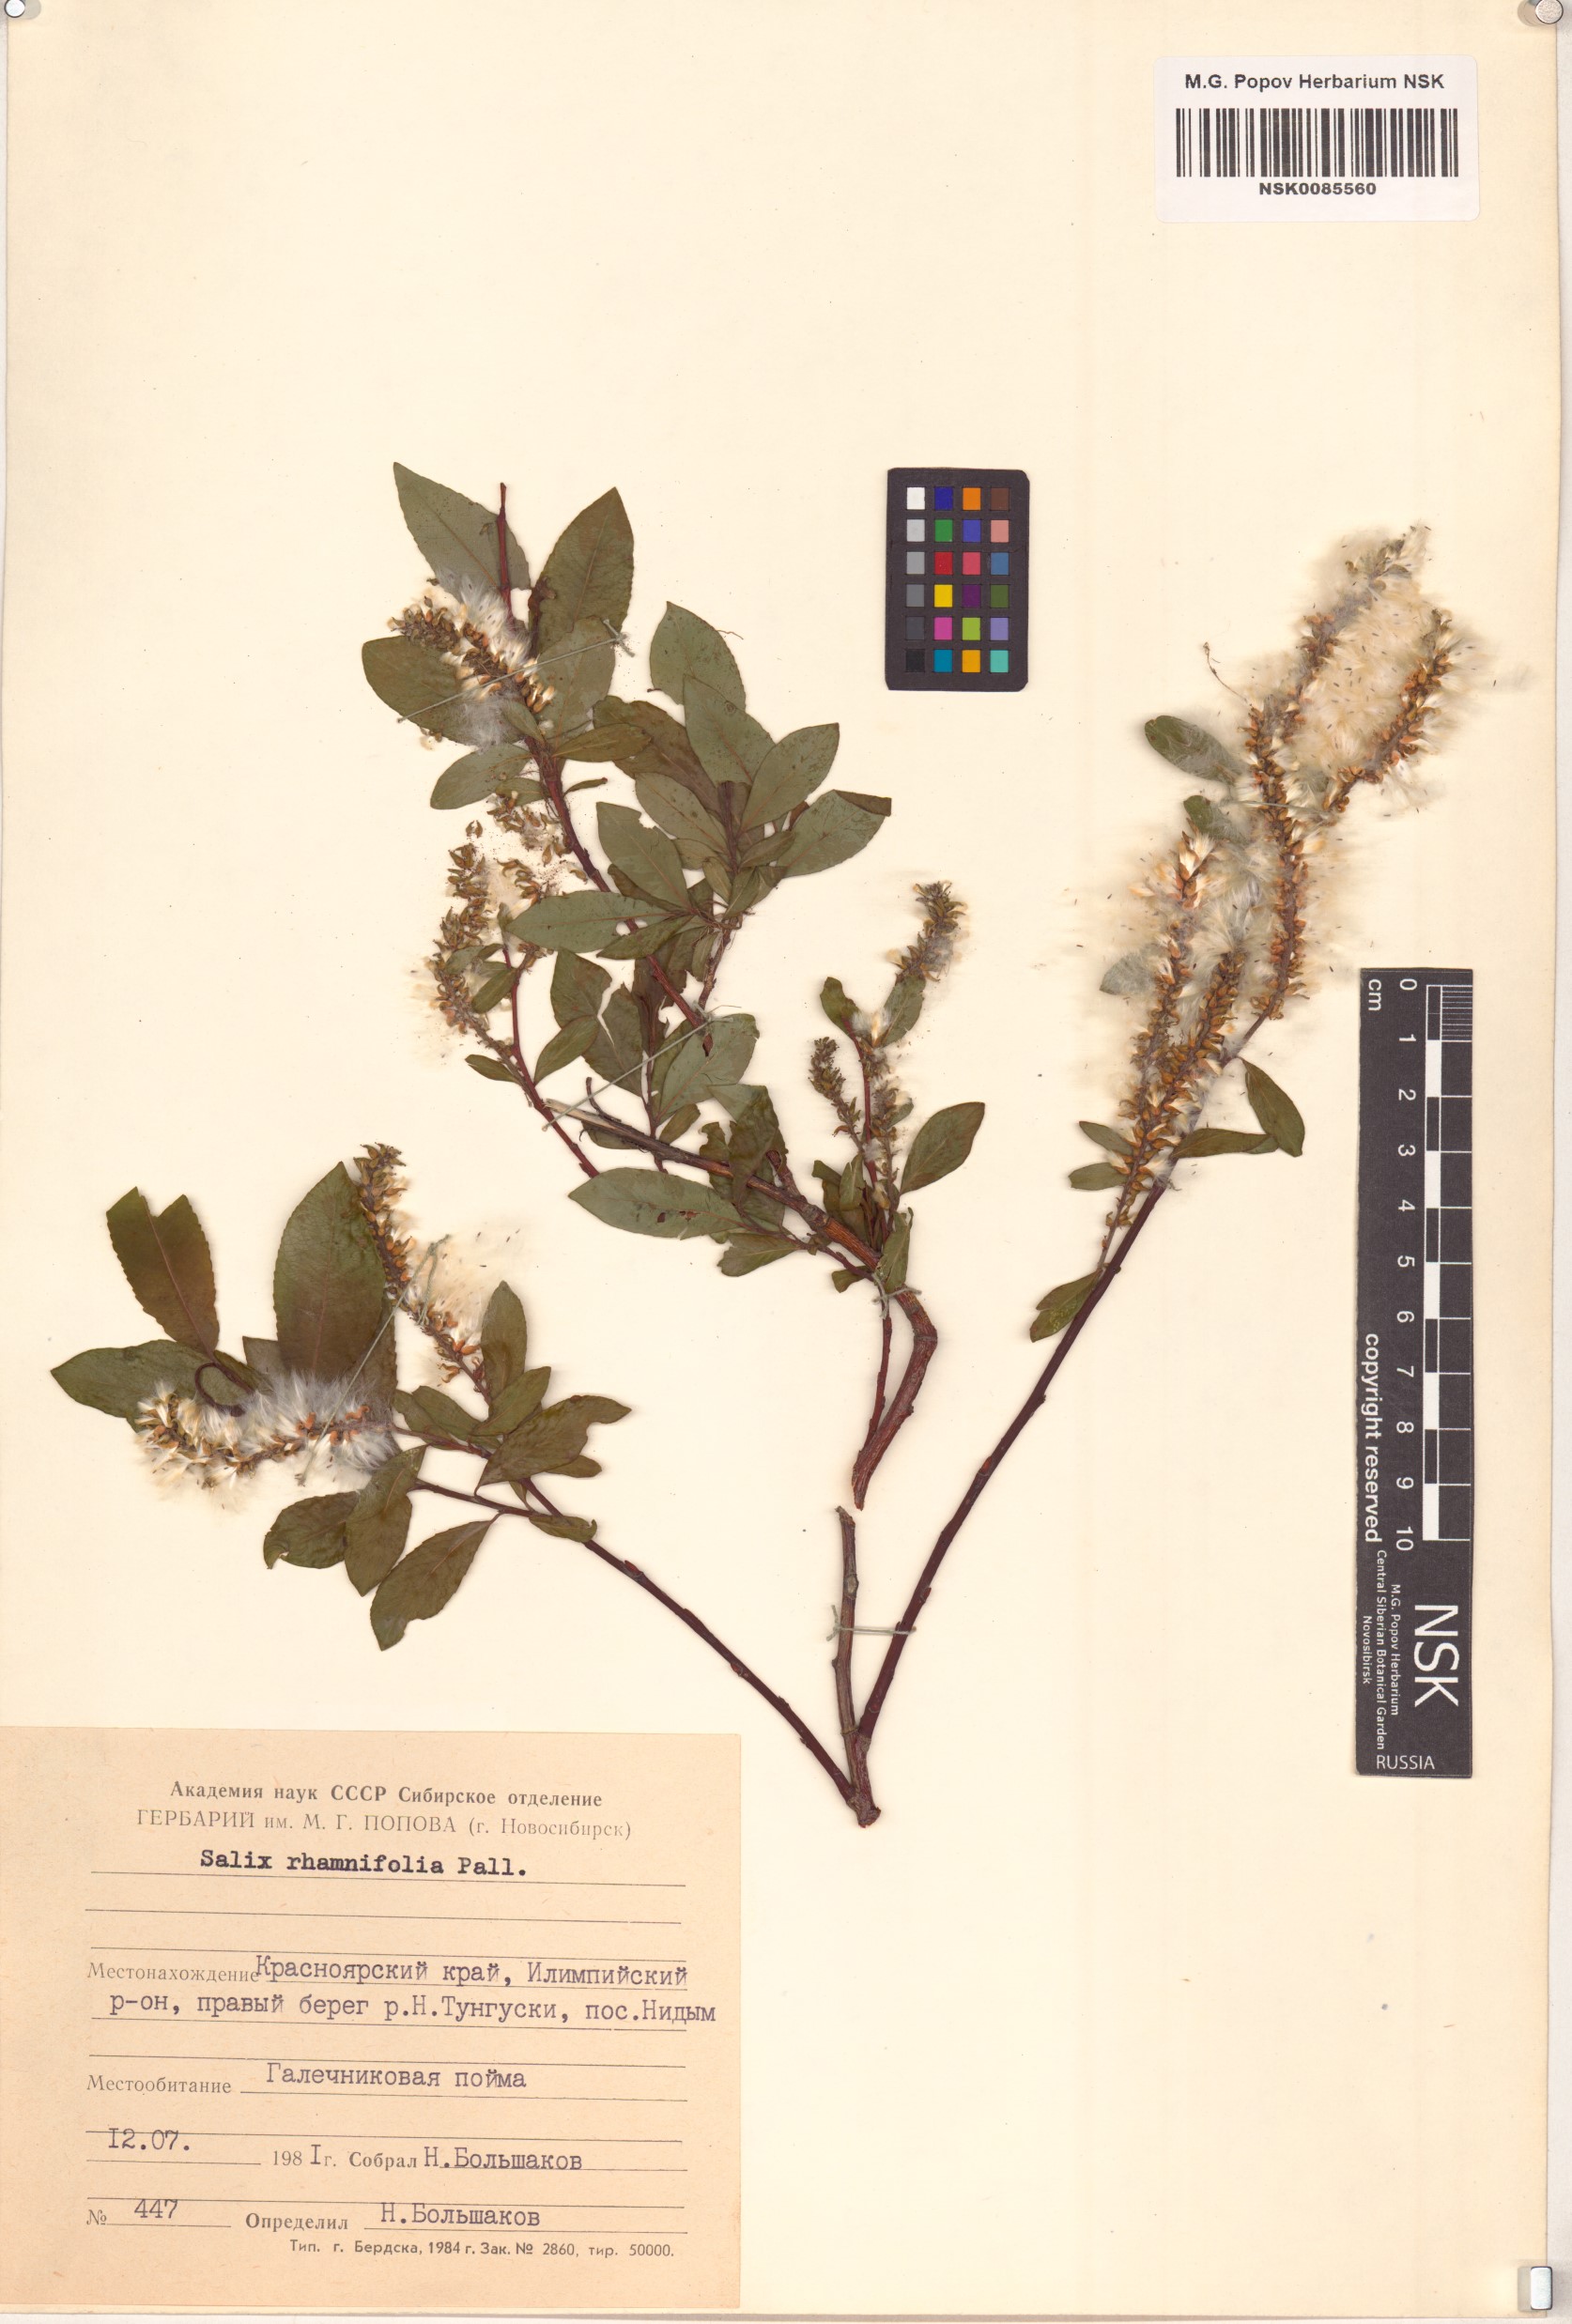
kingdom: Plantae
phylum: Tracheophyta
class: Magnoliopsida
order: Malpighiales
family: Salicaceae
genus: Salix
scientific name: Salix rhamnifolia
